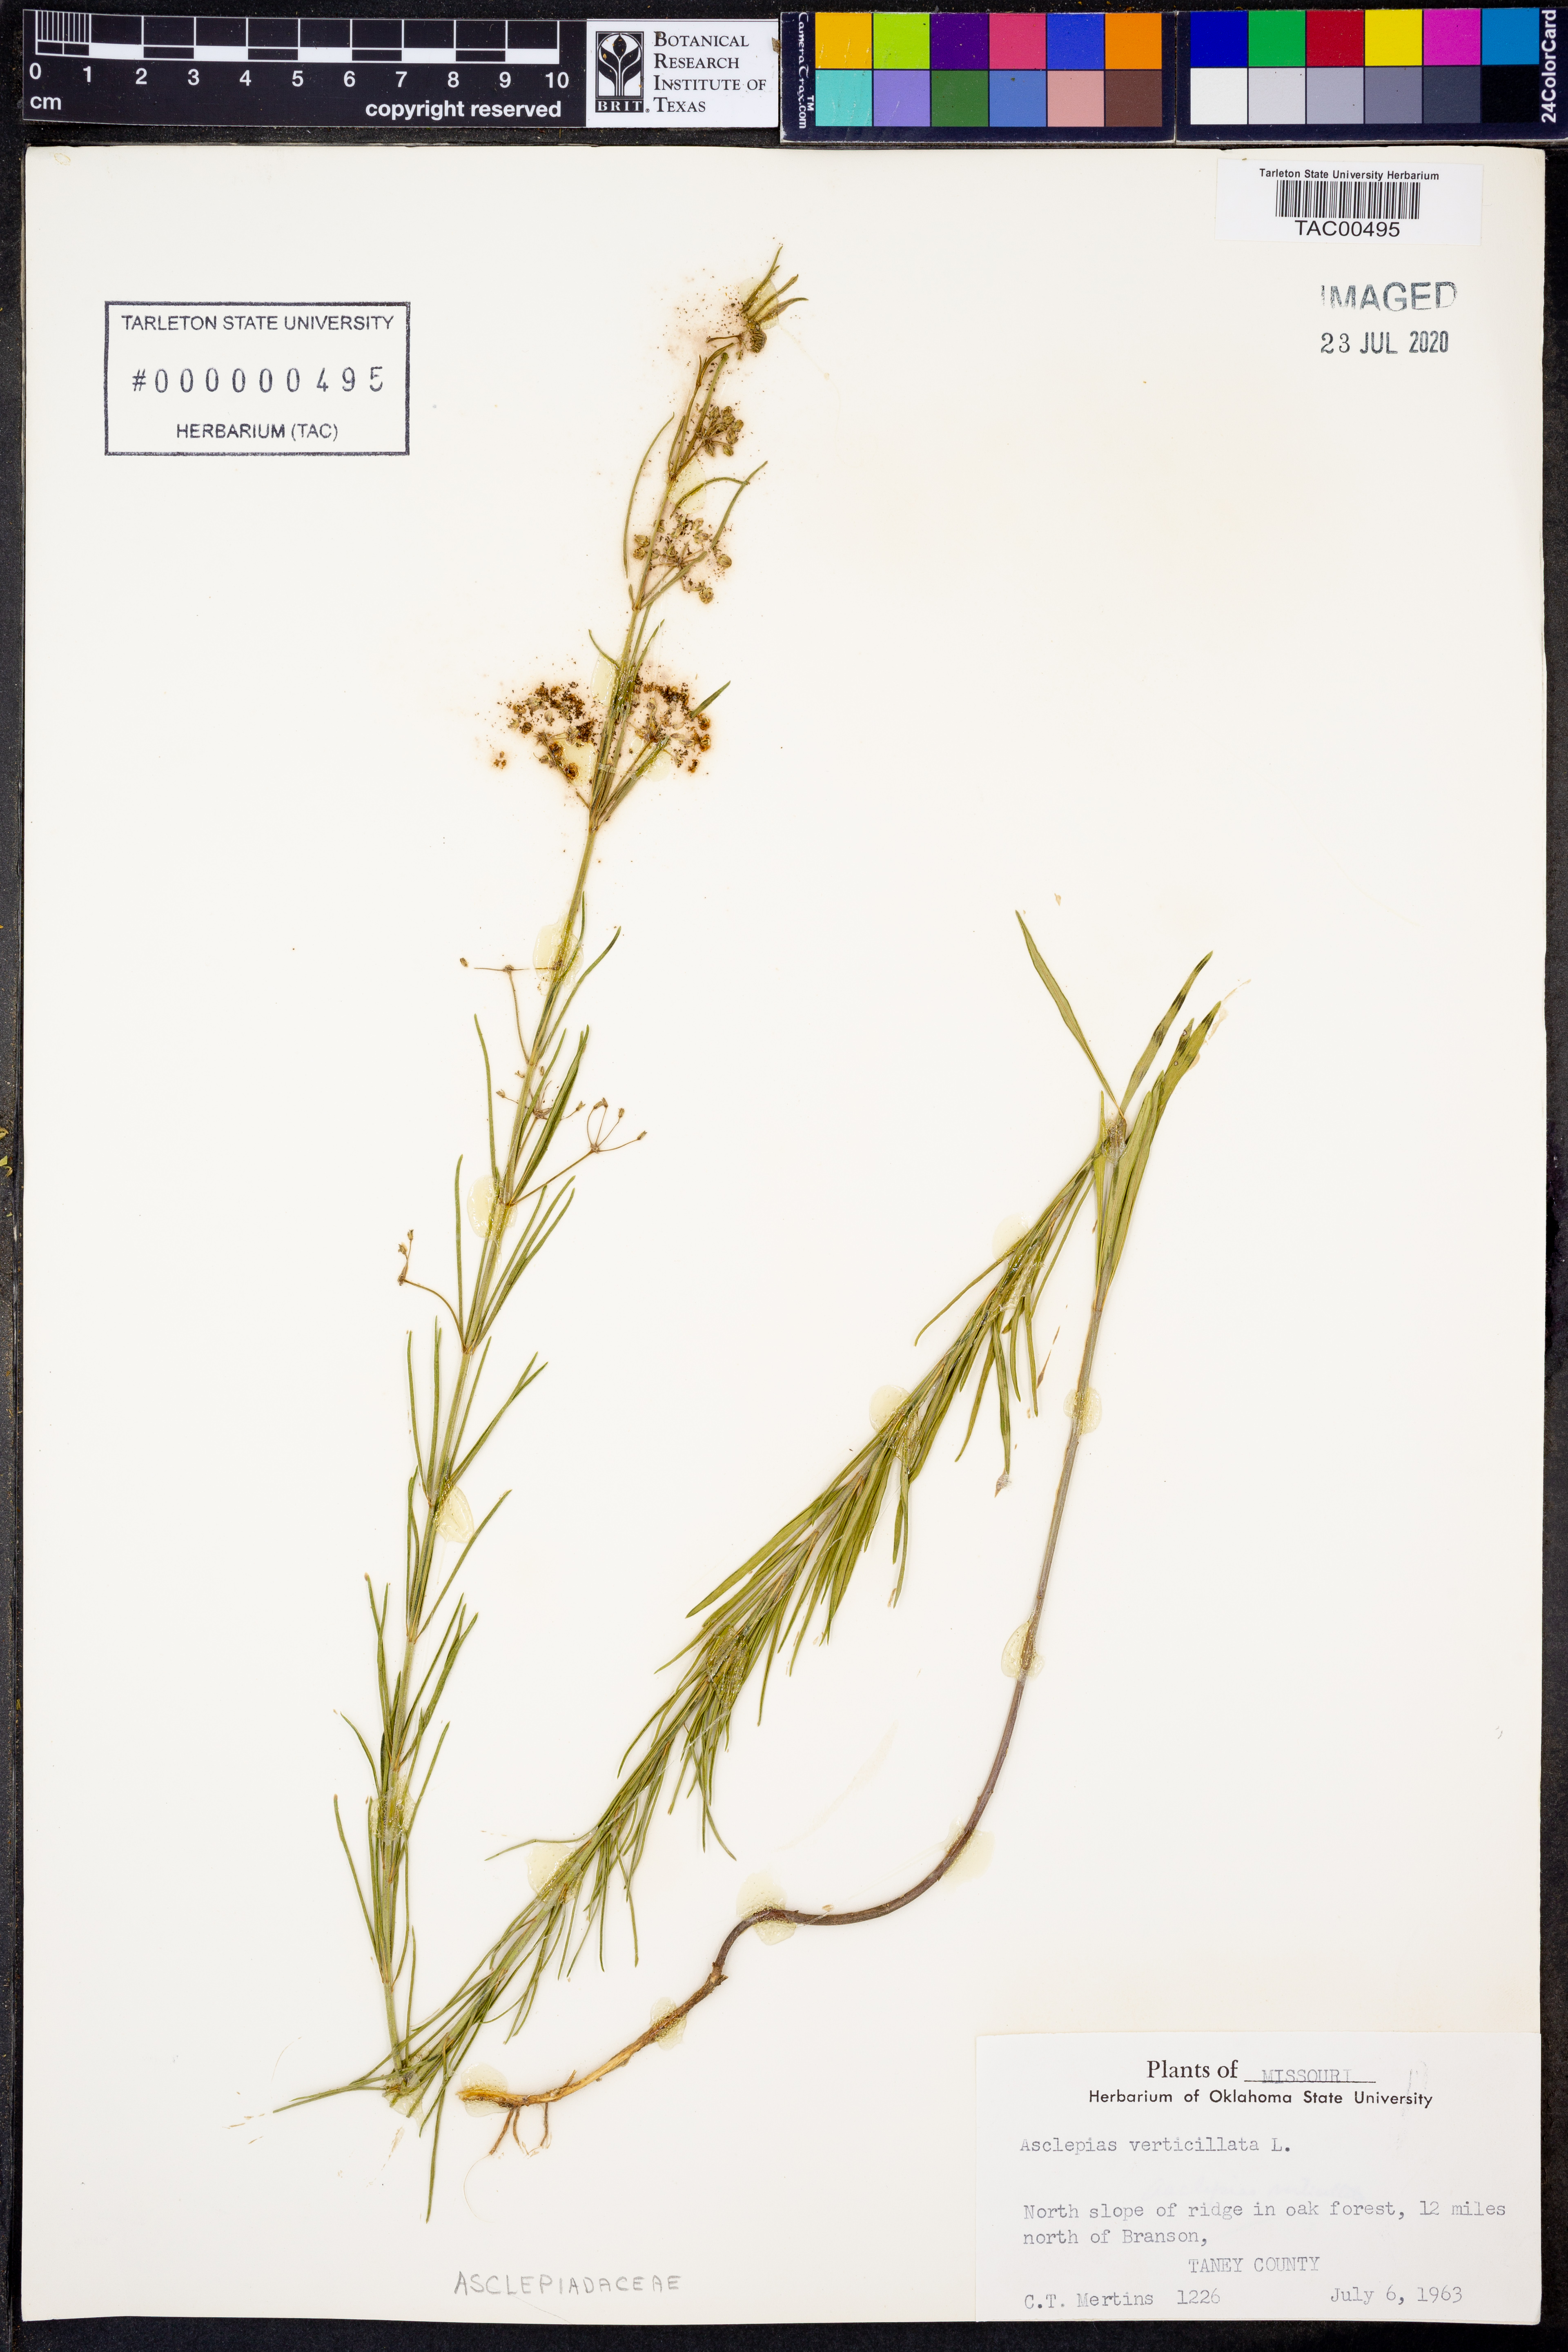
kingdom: Plantae
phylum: Tracheophyta
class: Magnoliopsida
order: Gentianales
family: Apocynaceae
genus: Asclepias
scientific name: Asclepias verticillata
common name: Eastern whorled milkweed
